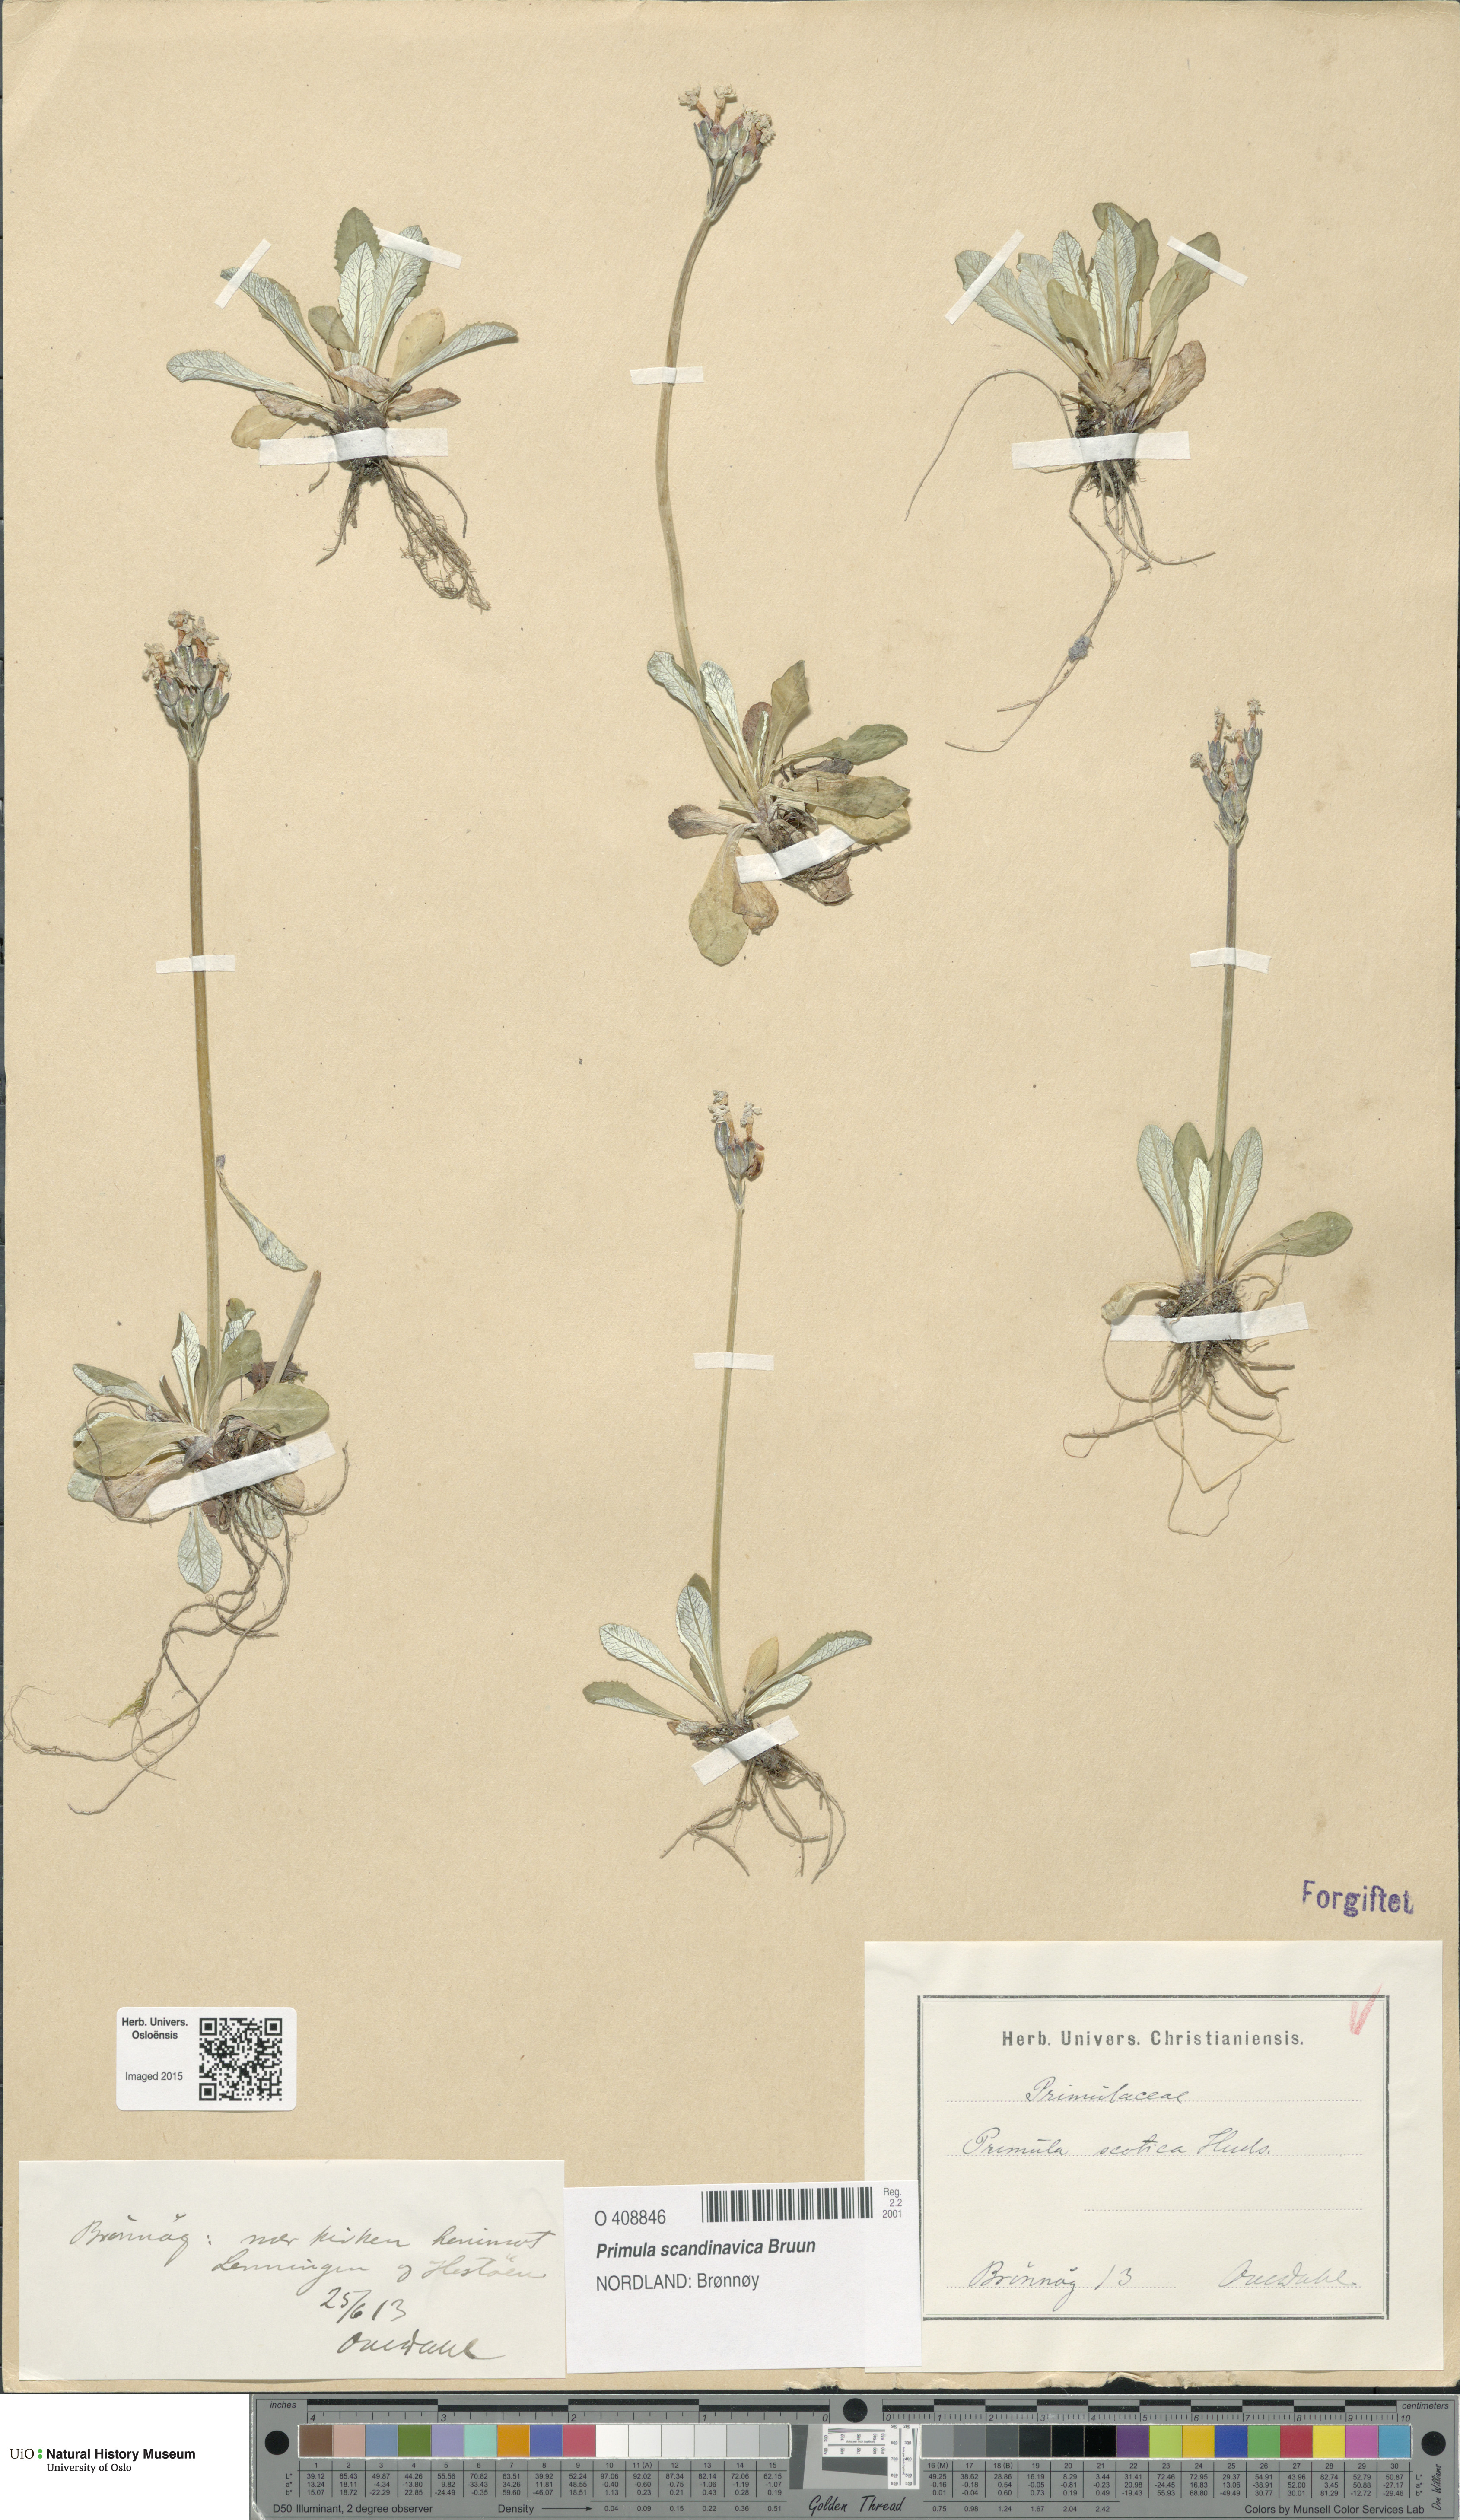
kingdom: Plantae
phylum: Tracheophyta
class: Magnoliopsida
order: Ericales
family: Primulaceae
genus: Primula
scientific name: Primula scandinavica
